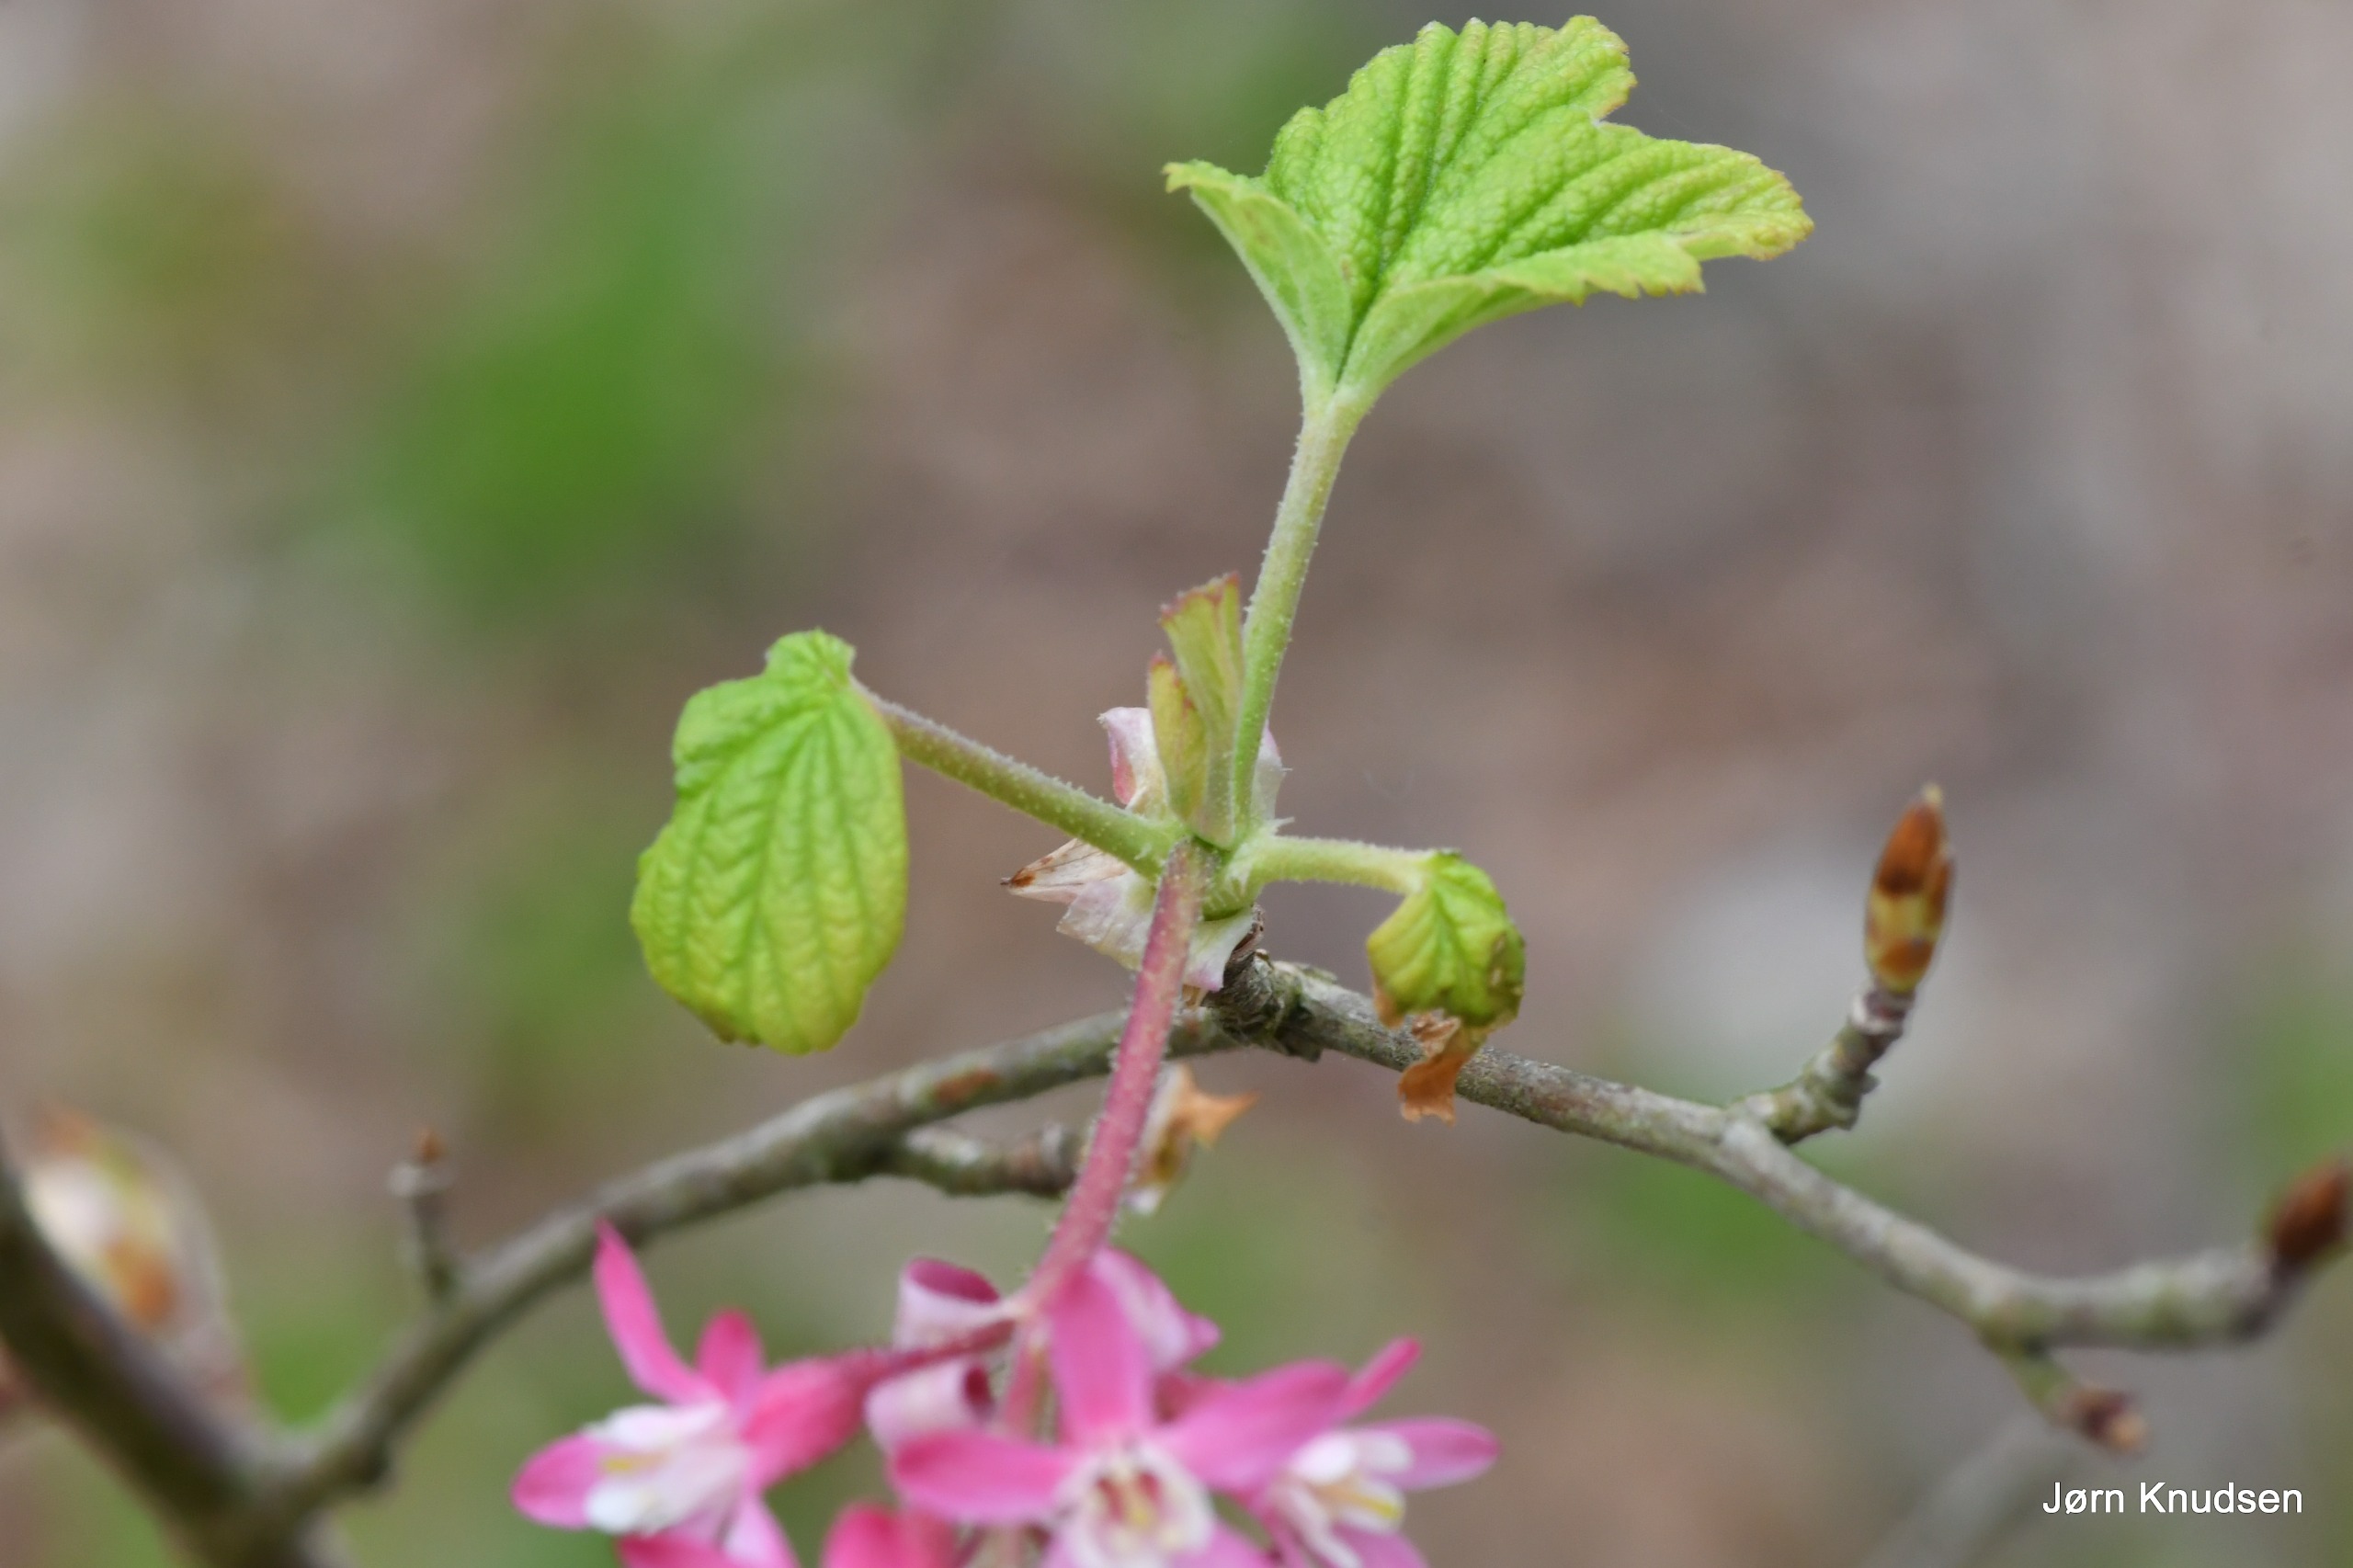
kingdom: Plantae
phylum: Tracheophyta
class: Magnoliopsida
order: Saxifragales
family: Grossulariaceae
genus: Ribes
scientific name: Ribes sanguineum
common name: Blod-ribs
